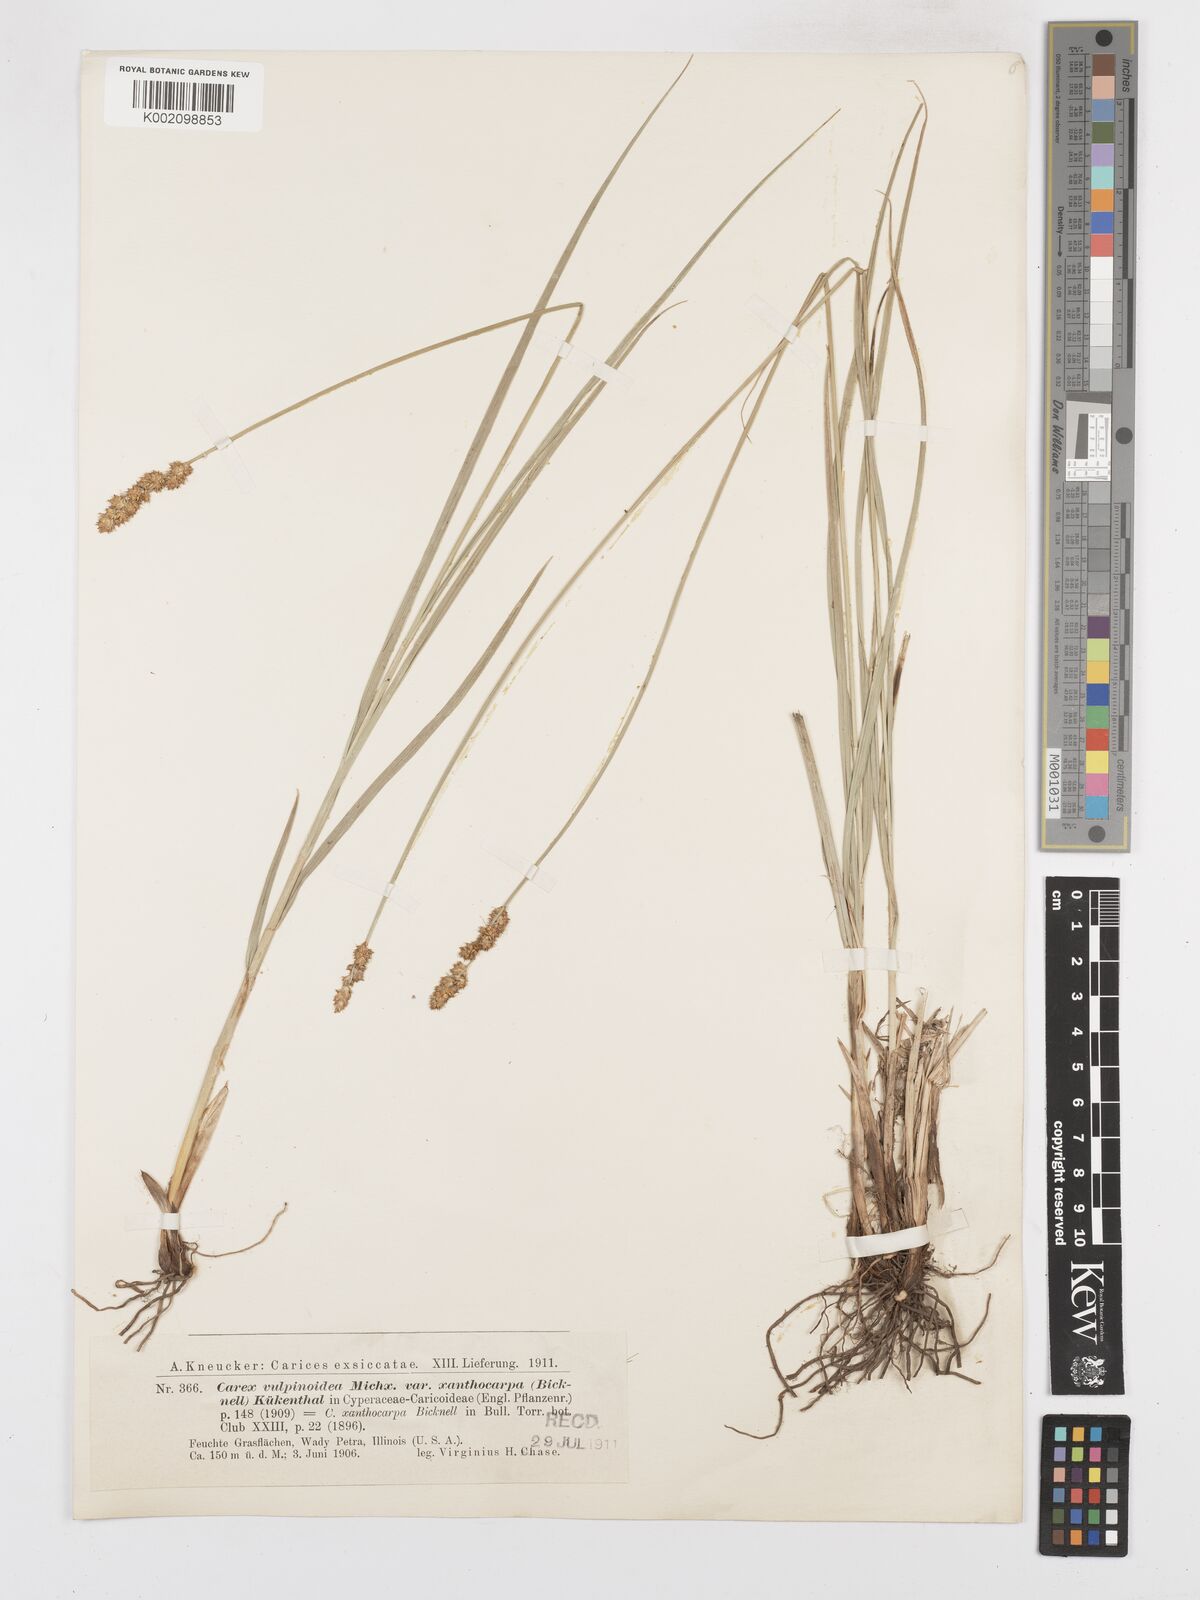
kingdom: Plantae
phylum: Tracheophyta
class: Liliopsida
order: Poales
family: Cyperaceae
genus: Carex
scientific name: Carex annectens
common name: Large fox sedge
